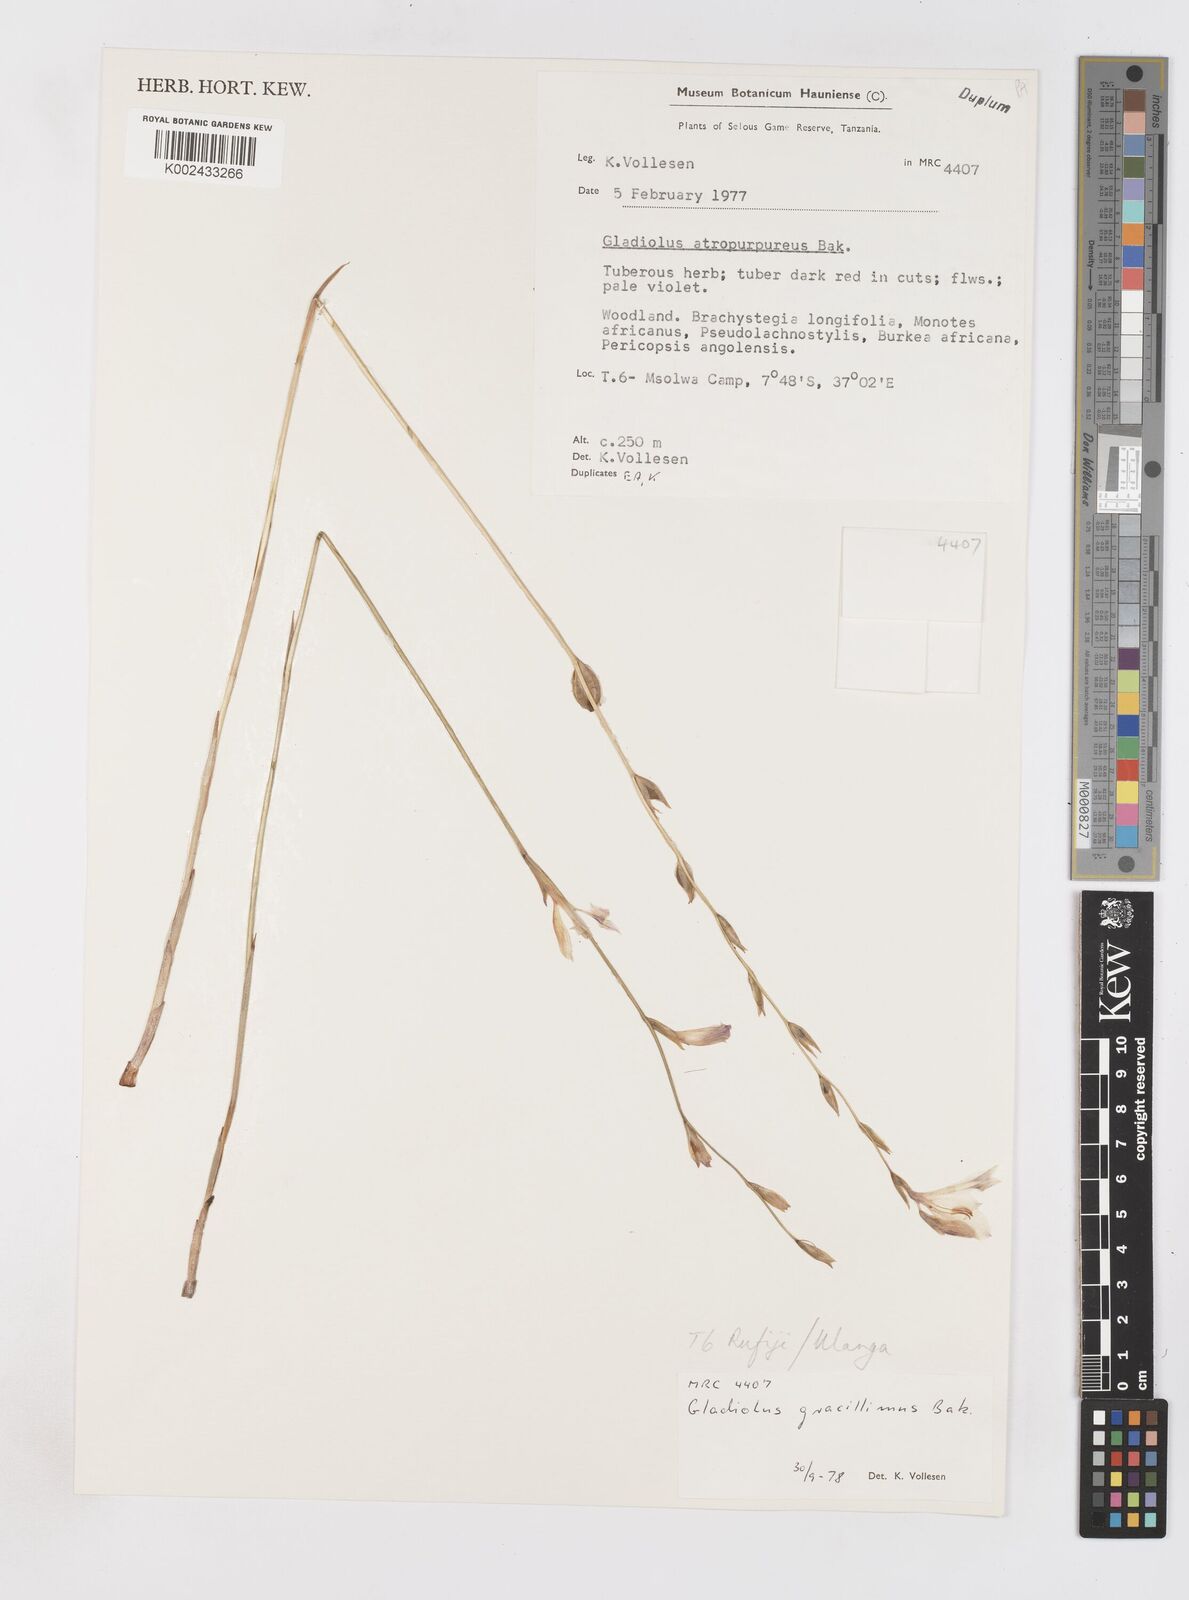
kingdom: Plantae
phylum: Tracheophyta
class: Liliopsida
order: Asparagales
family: Iridaceae
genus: Gladiolus
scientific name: Gladiolus gracillimus
